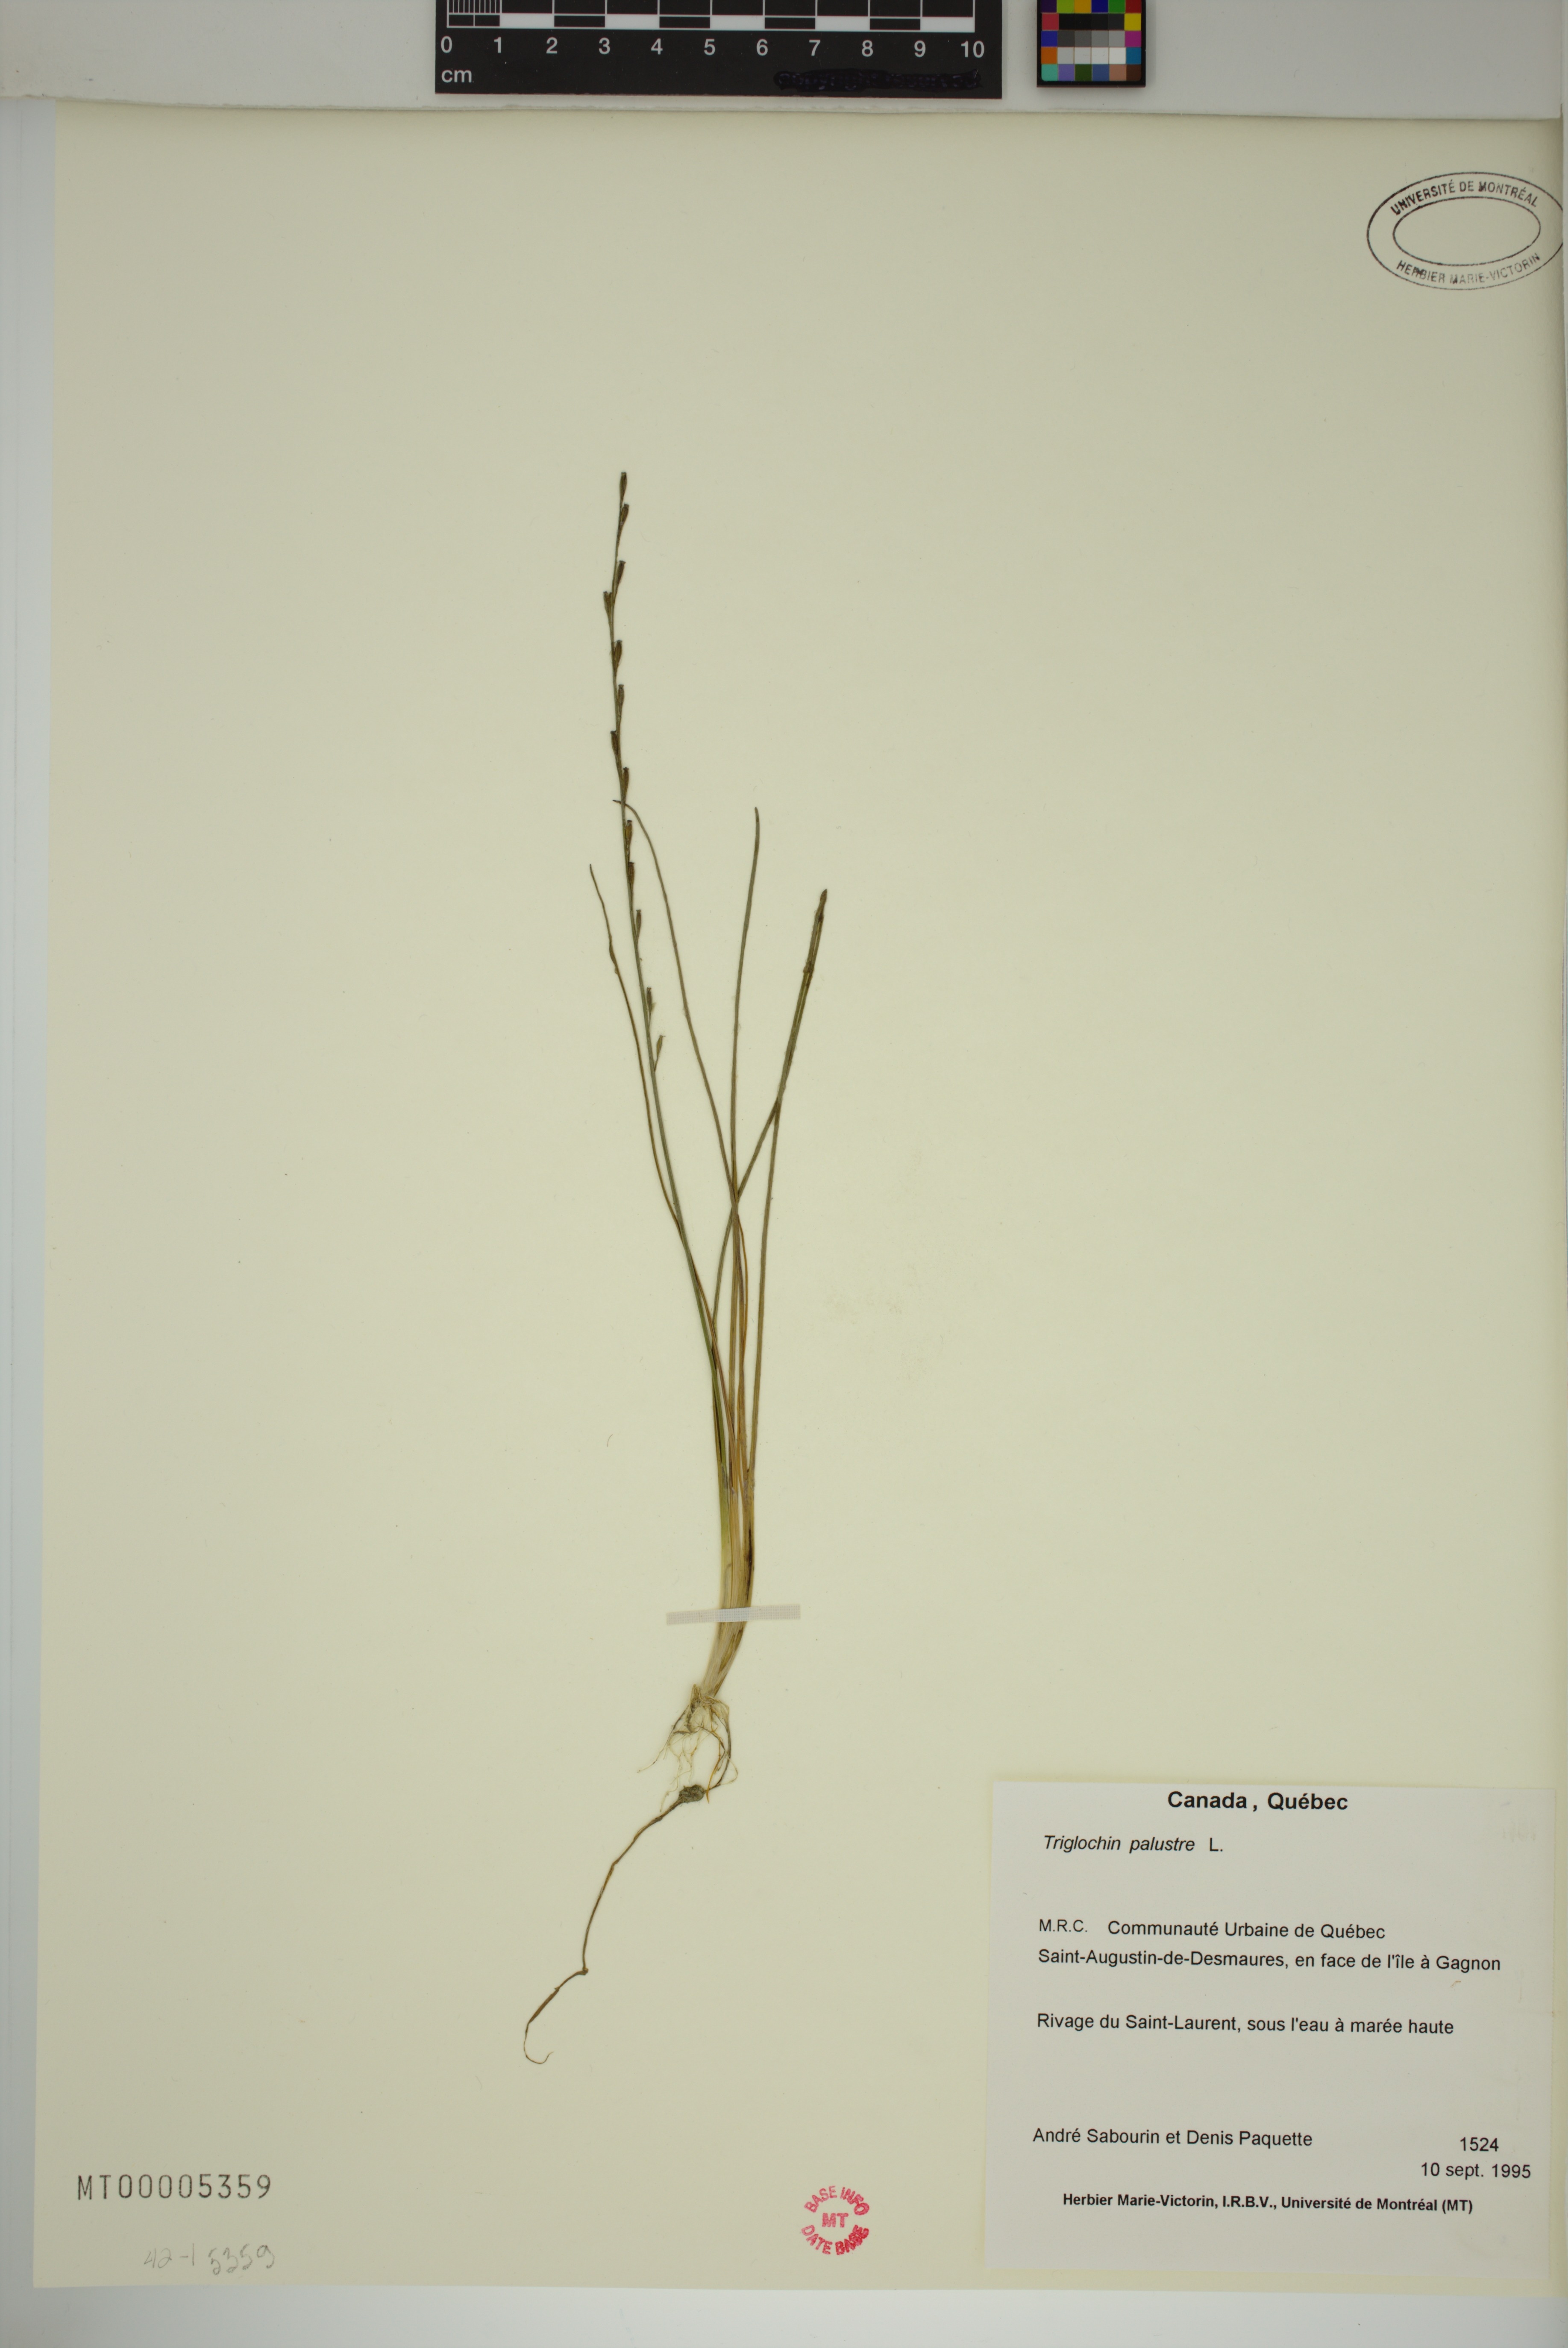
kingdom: Plantae
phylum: Tracheophyta
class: Liliopsida
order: Alismatales
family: Juncaginaceae
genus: Triglochin
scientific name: Triglochin palustris
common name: Marsh arrowgrass
